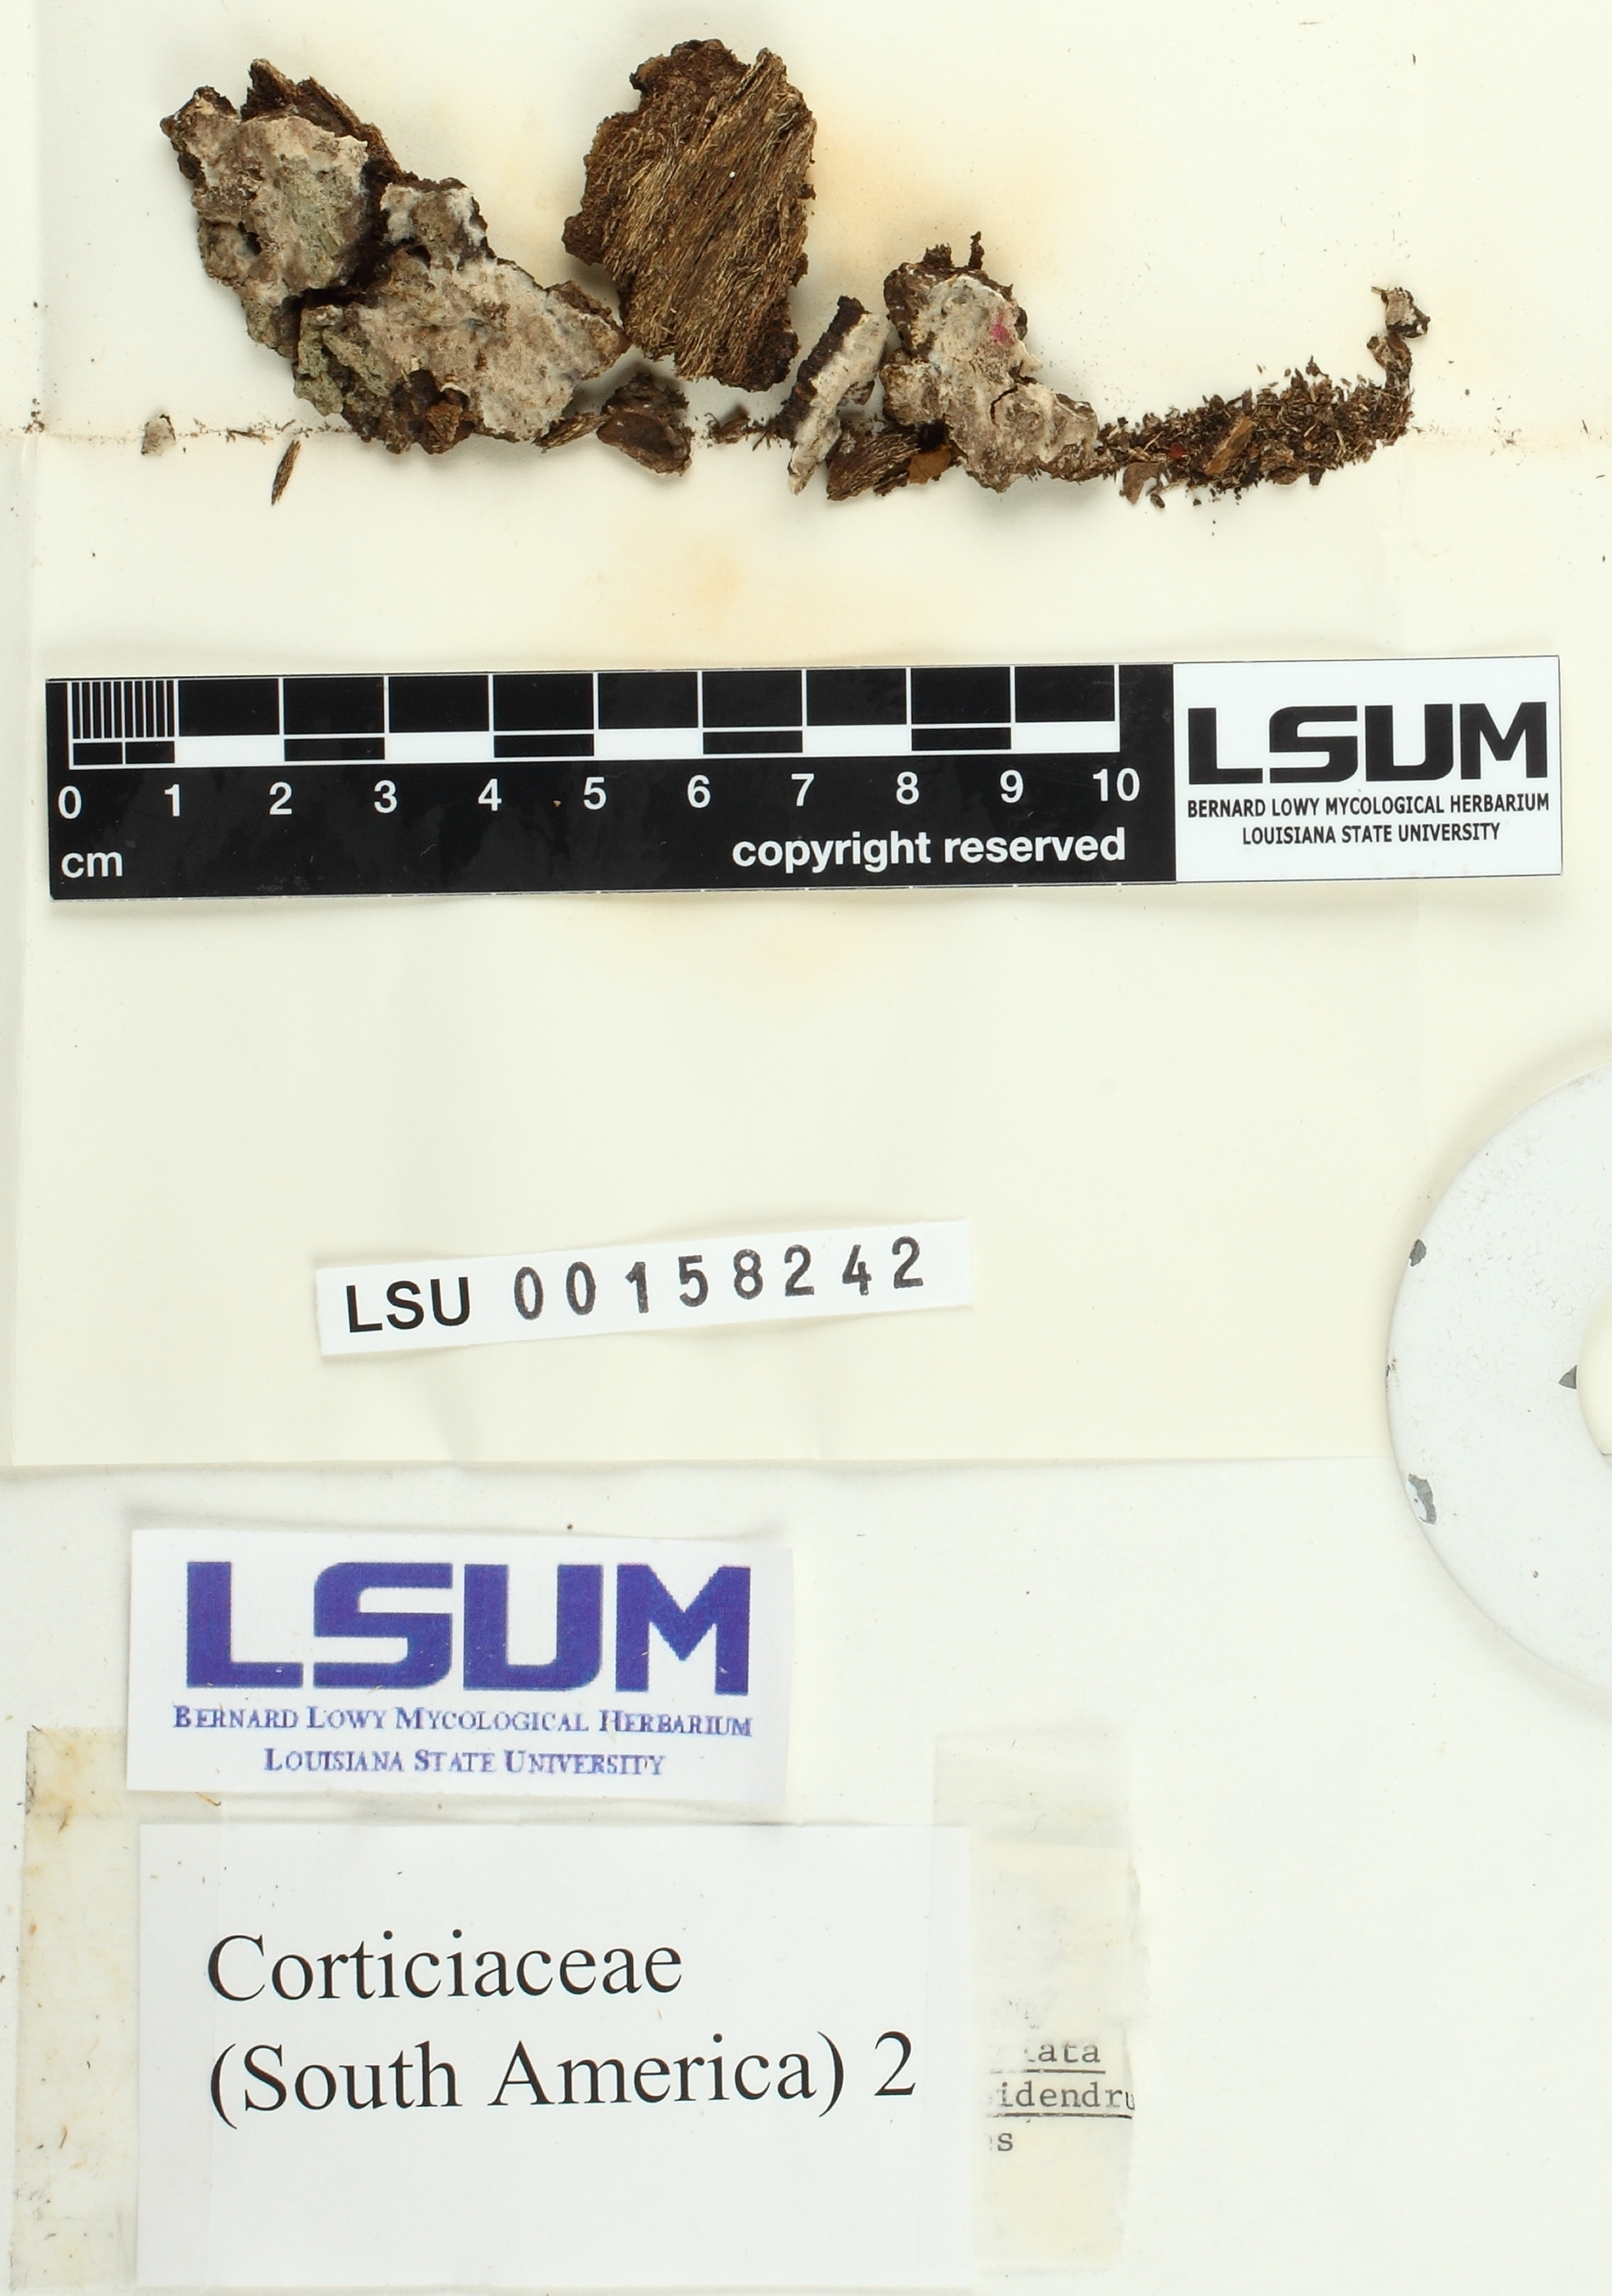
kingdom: Fungi
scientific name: Fungi
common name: Fungi
